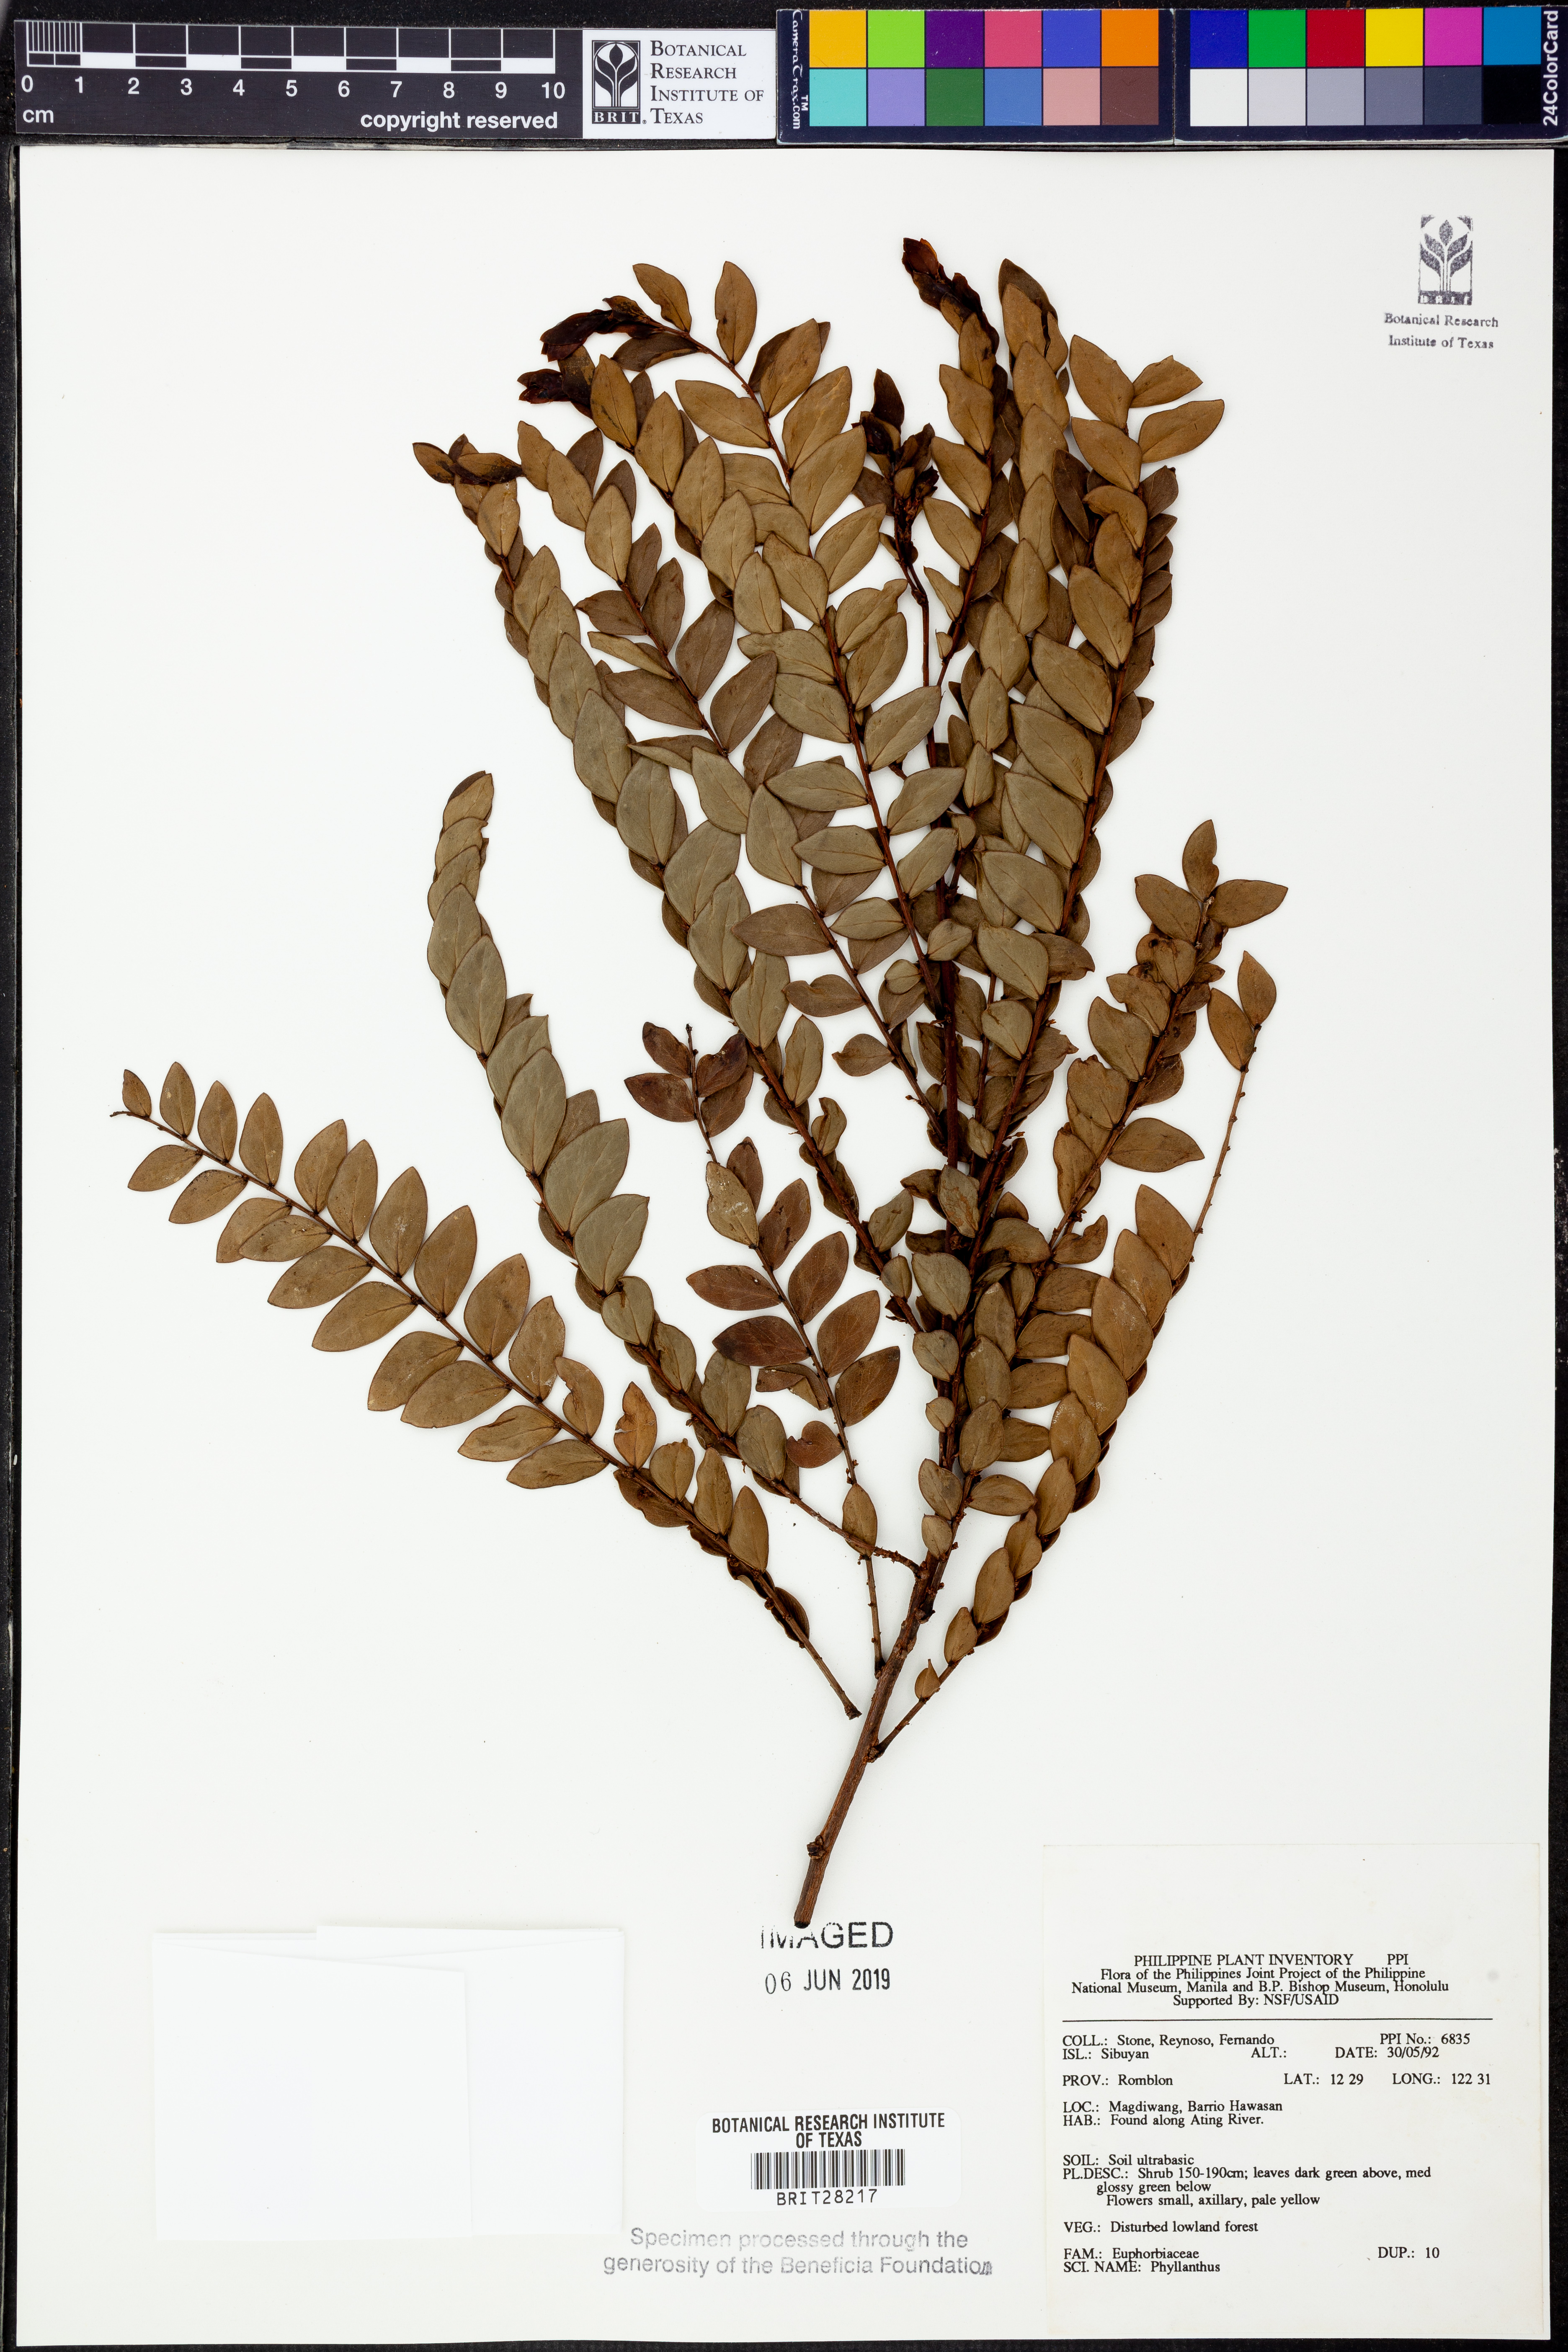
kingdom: Plantae
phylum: Tracheophyta
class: Magnoliopsida
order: Malpighiales
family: Phyllanthaceae
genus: Phyllanthus
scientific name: Phyllanthus
